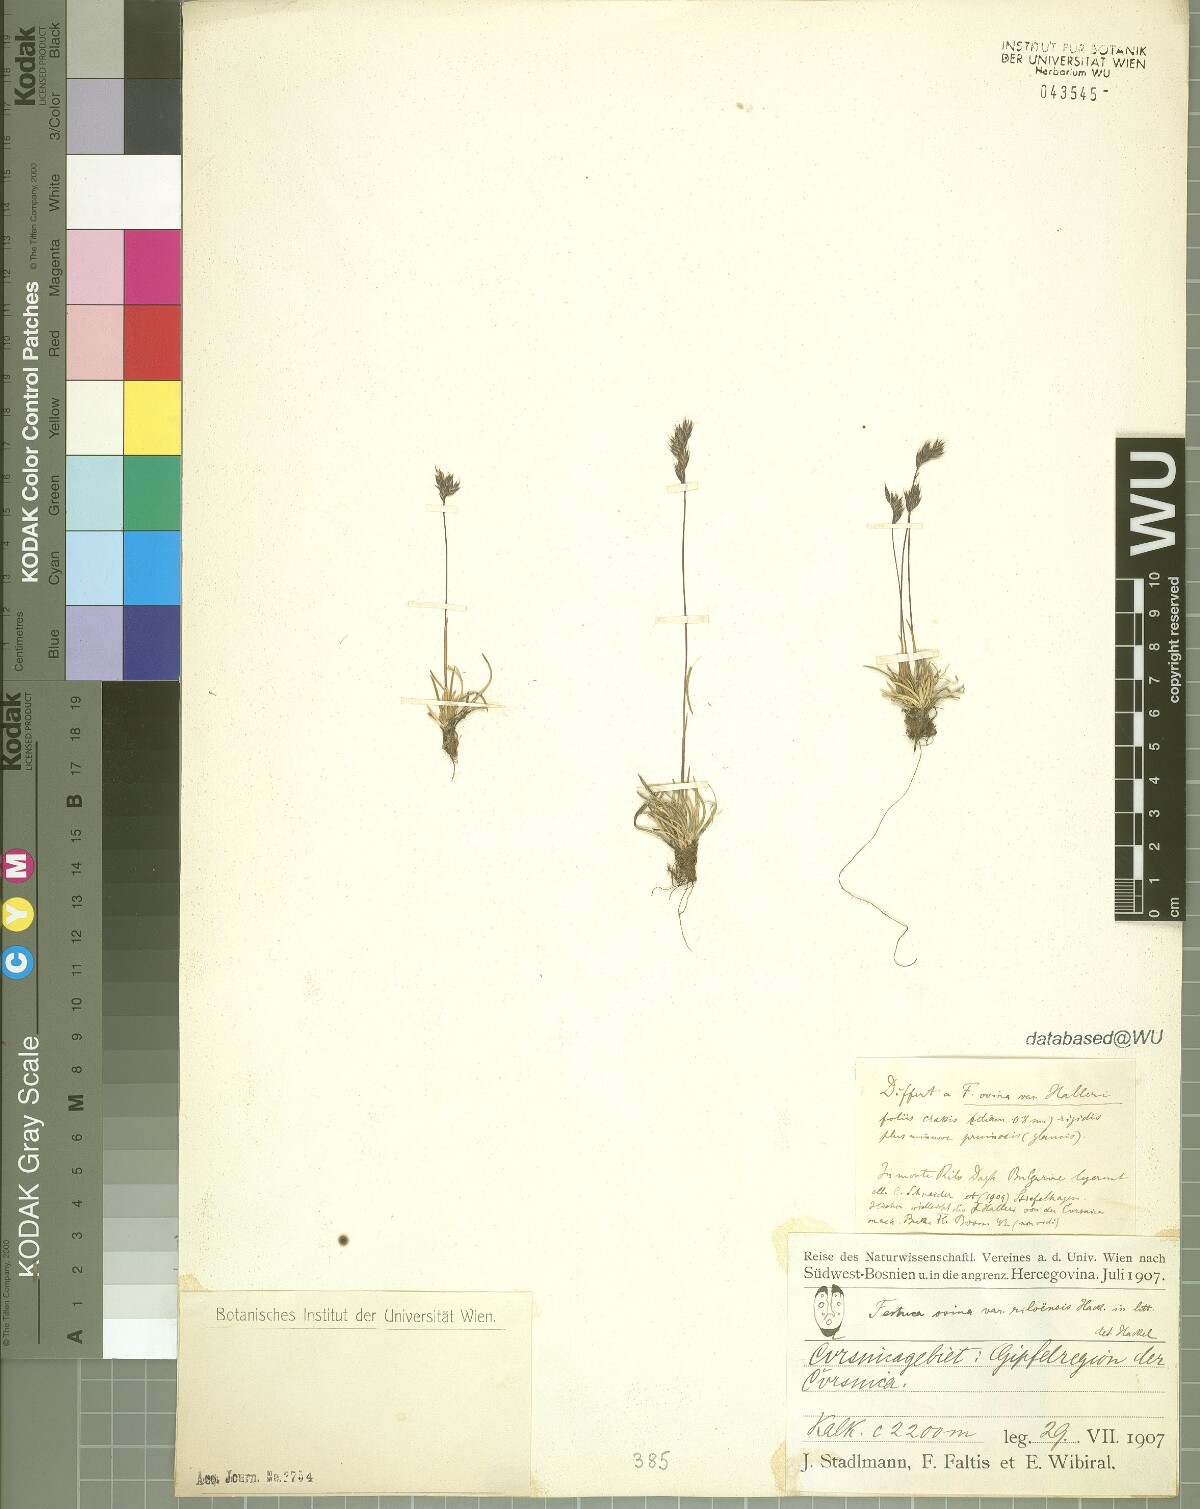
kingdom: Plantae
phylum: Tracheophyta
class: Liliopsida
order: Poales
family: Poaceae
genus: Festuca
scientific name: Festuca riloensis
